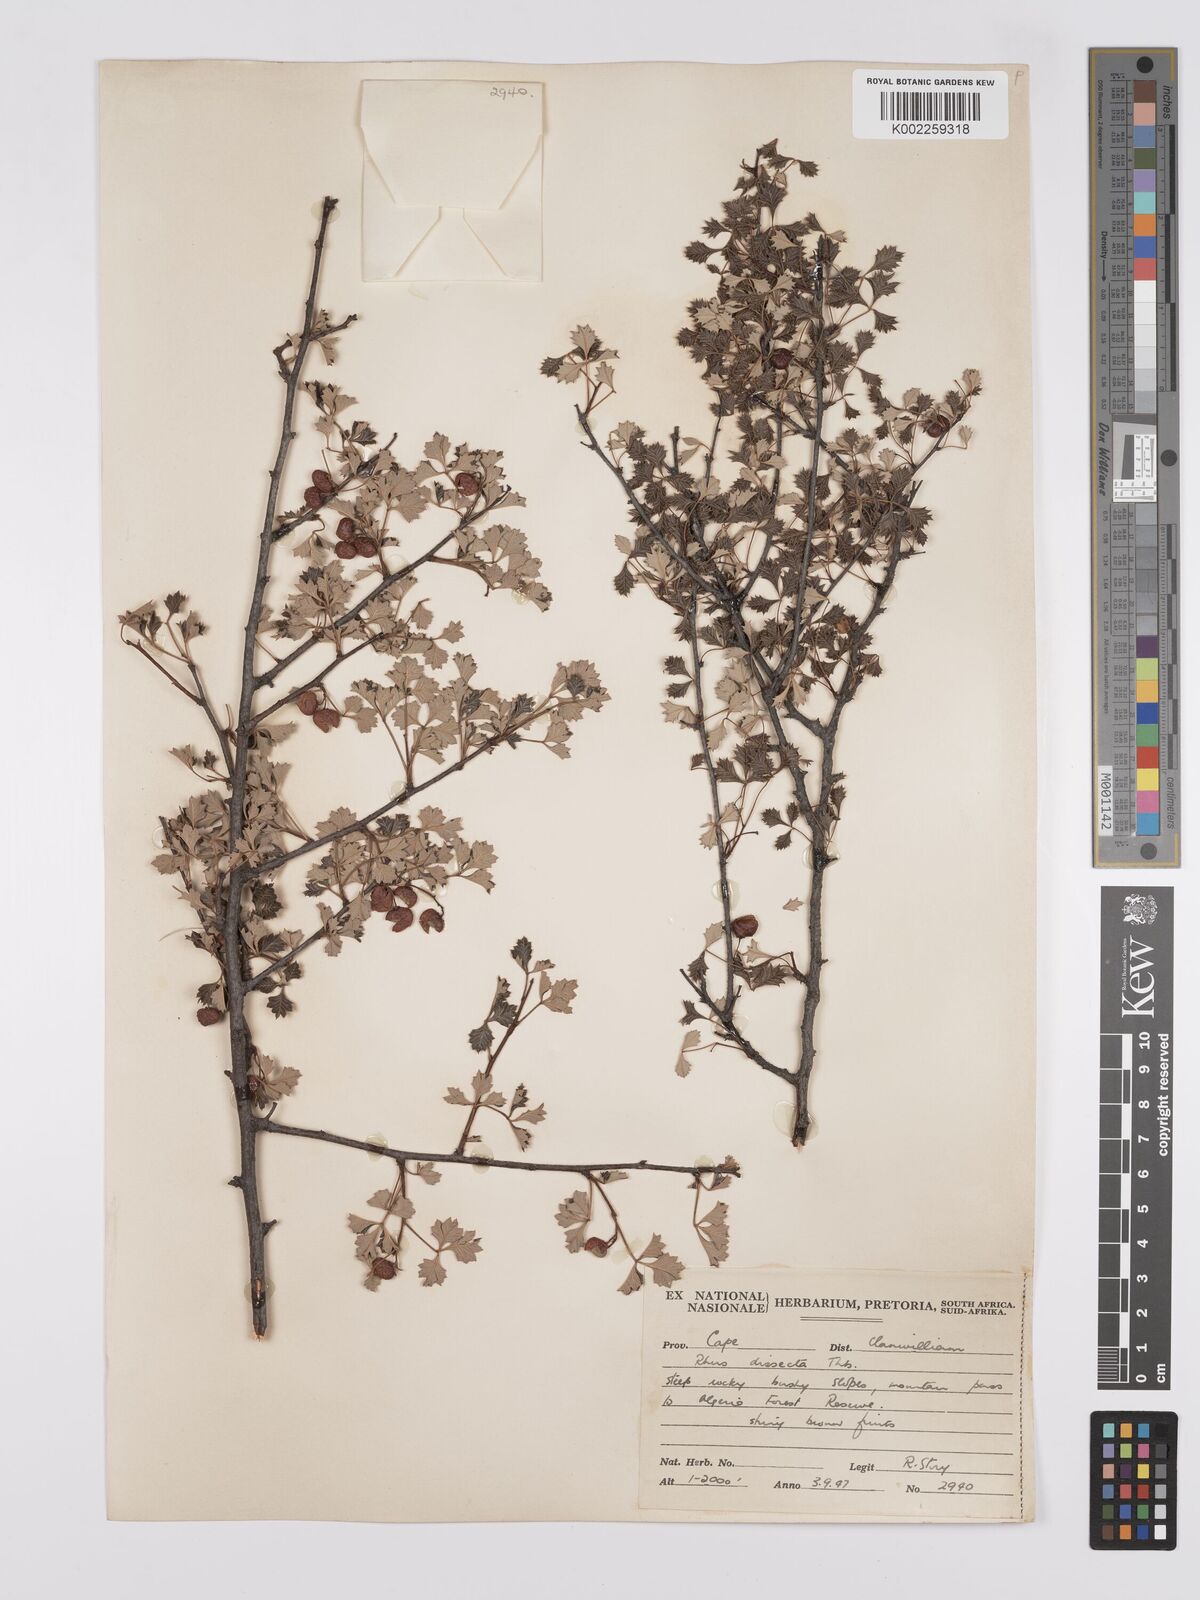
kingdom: Plantae
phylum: Tracheophyta
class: Magnoliopsida
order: Sapindales
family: Anacardiaceae
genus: Searsia
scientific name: Searsia dissecta
